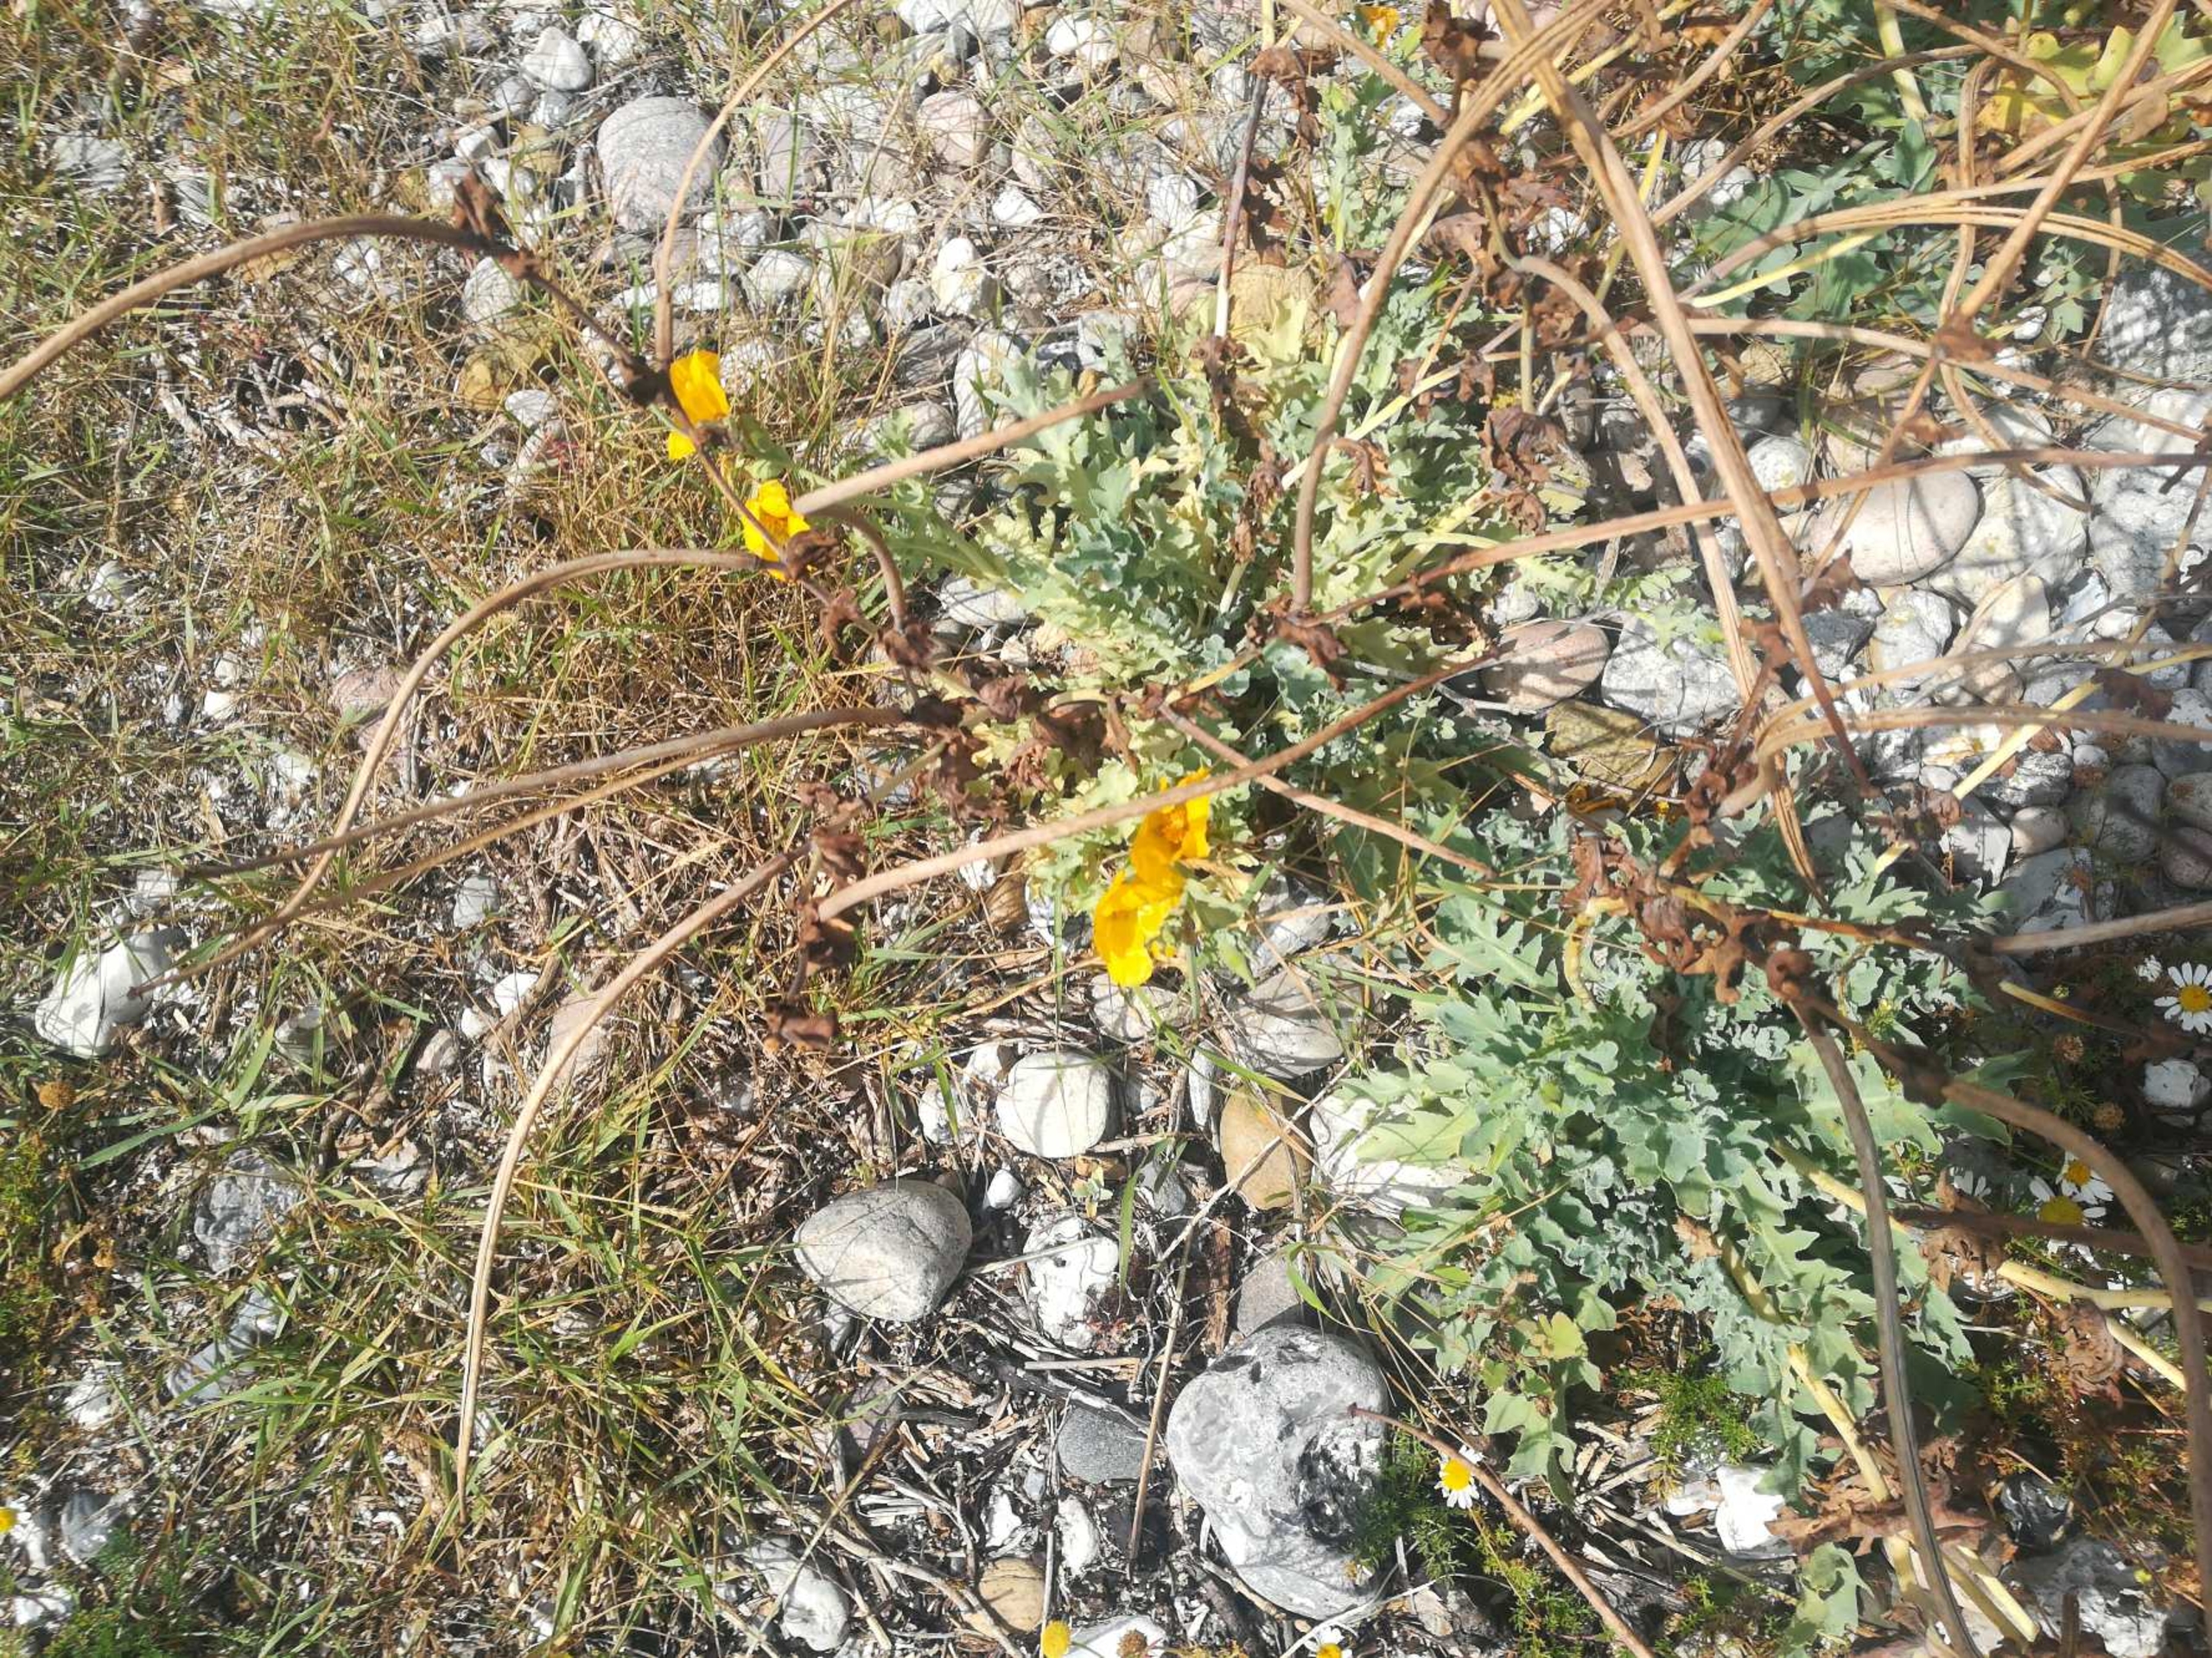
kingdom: Plantae
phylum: Tracheophyta
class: Magnoliopsida
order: Ranunculales
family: Papaveraceae
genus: Glaucium
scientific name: Glaucium flavum
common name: Hornskulpe
